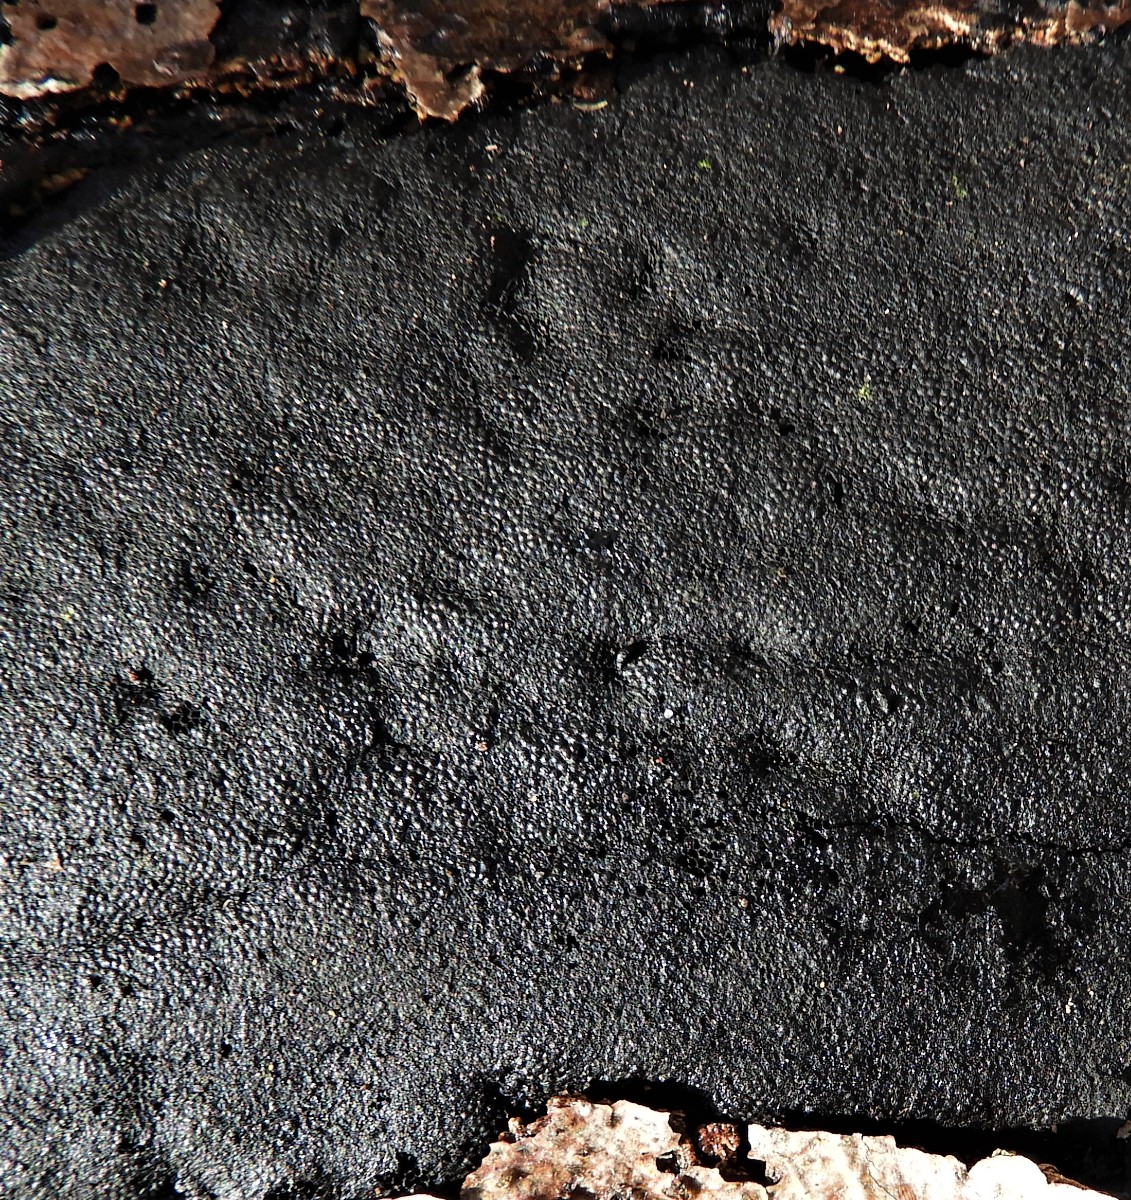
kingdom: Fungi
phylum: Ascomycota
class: Sordariomycetes
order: Xylariales
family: Diatrypaceae
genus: Eutypa
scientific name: Eutypa spinosa
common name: grov kulskorpe
